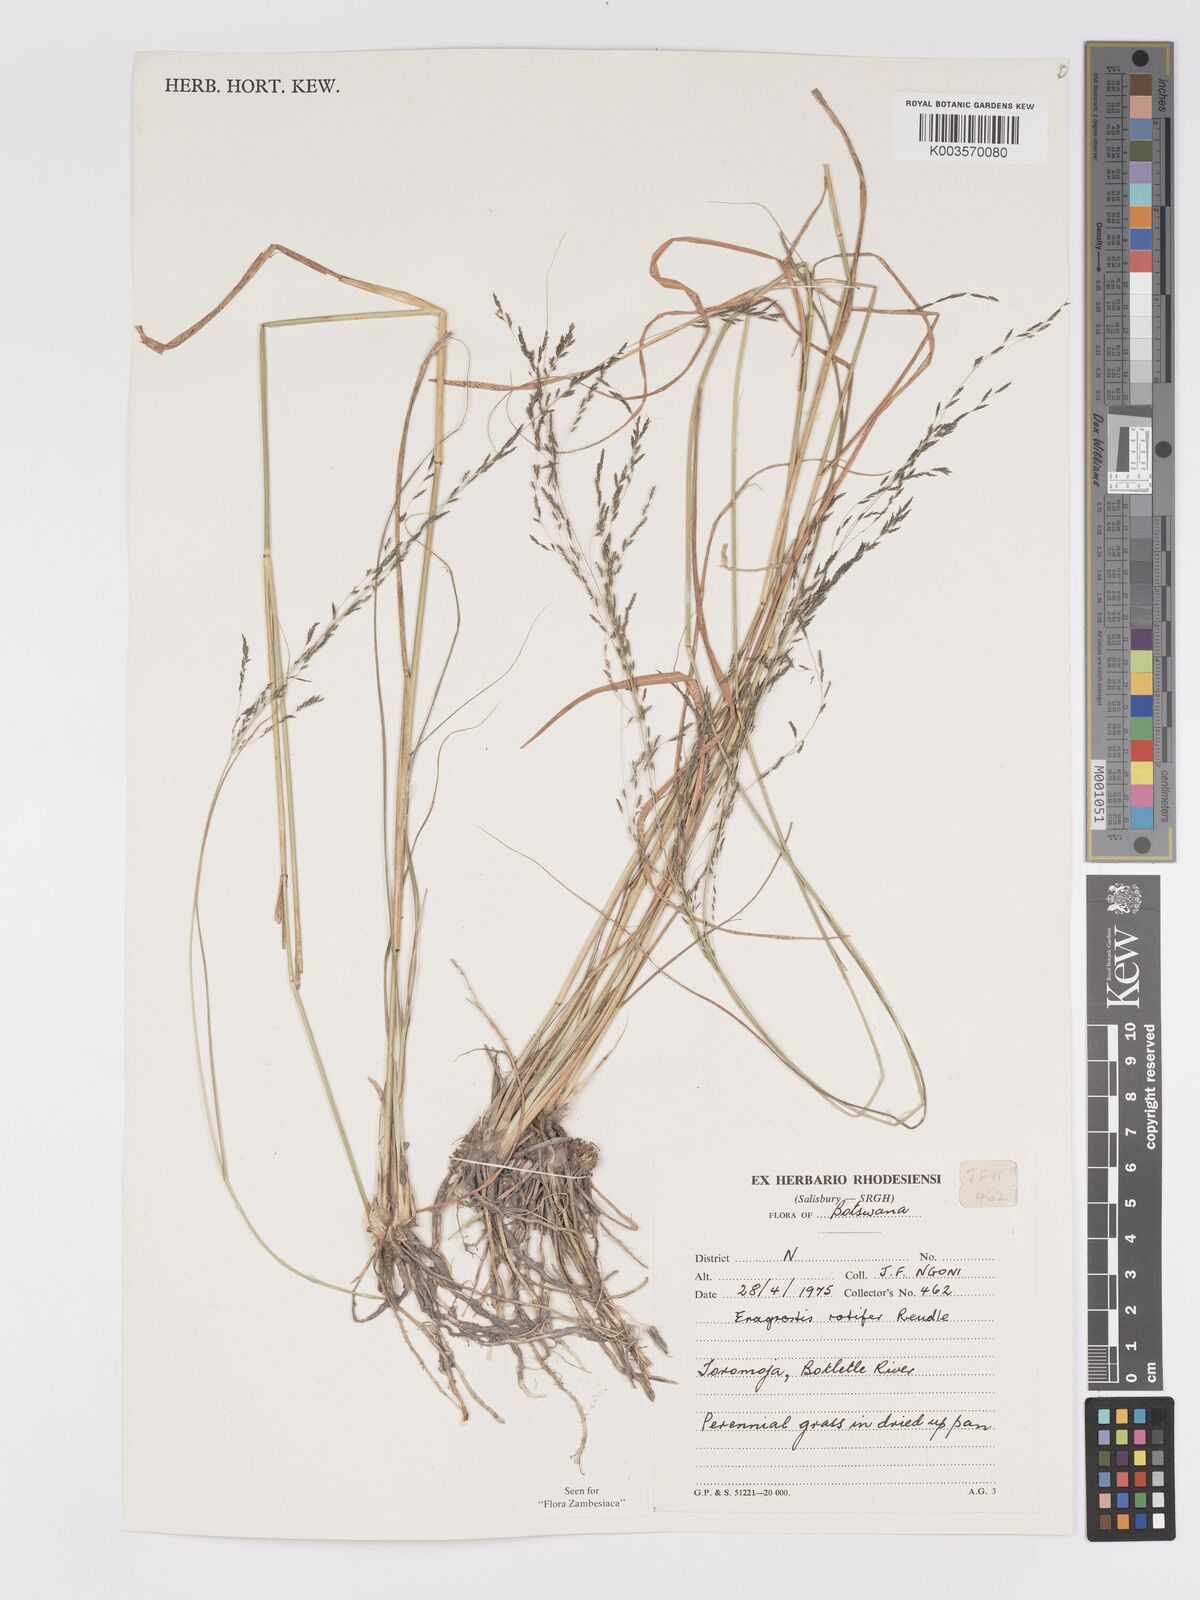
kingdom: Plantae
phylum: Tracheophyta
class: Liliopsida
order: Poales
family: Poaceae
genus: Eragrostis
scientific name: Eragrostis rotifer
